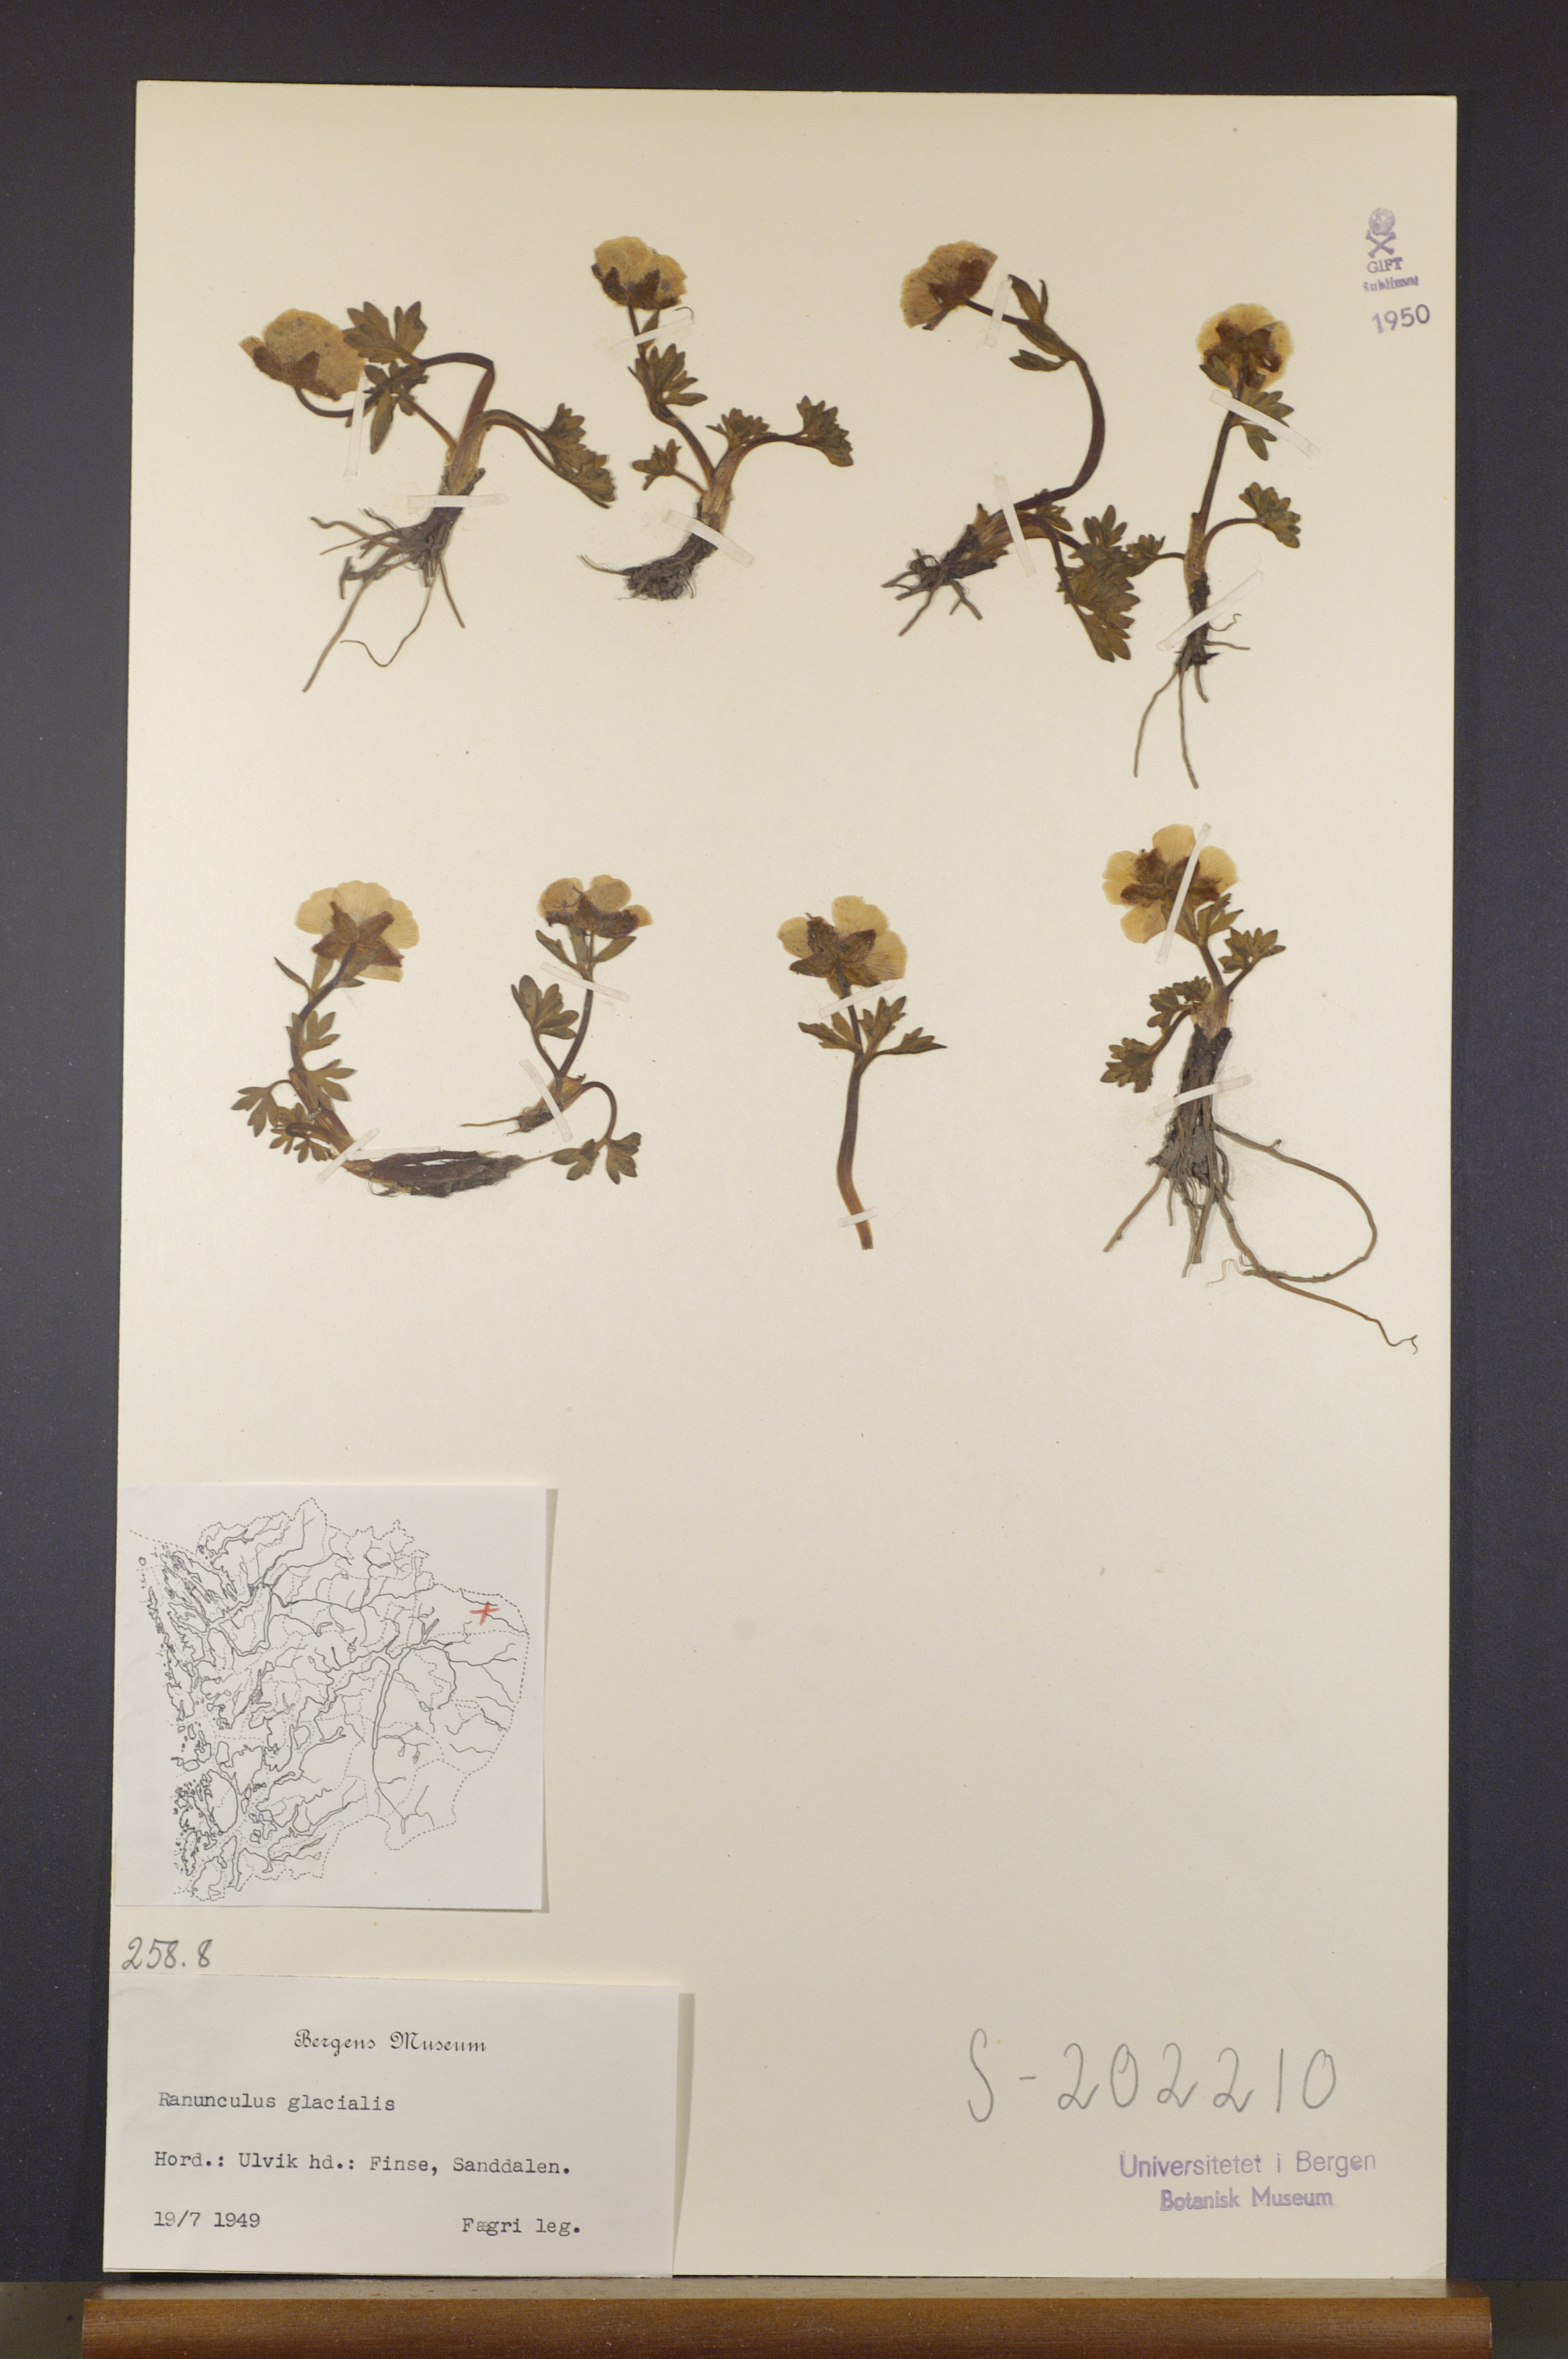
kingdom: Plantae
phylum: Tracheophyta
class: Magnoliopsida
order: Ranunculales
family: Ranunculaceae
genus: Ranunculus
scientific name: Ranunculus glacialis
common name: Glacier buttercup
